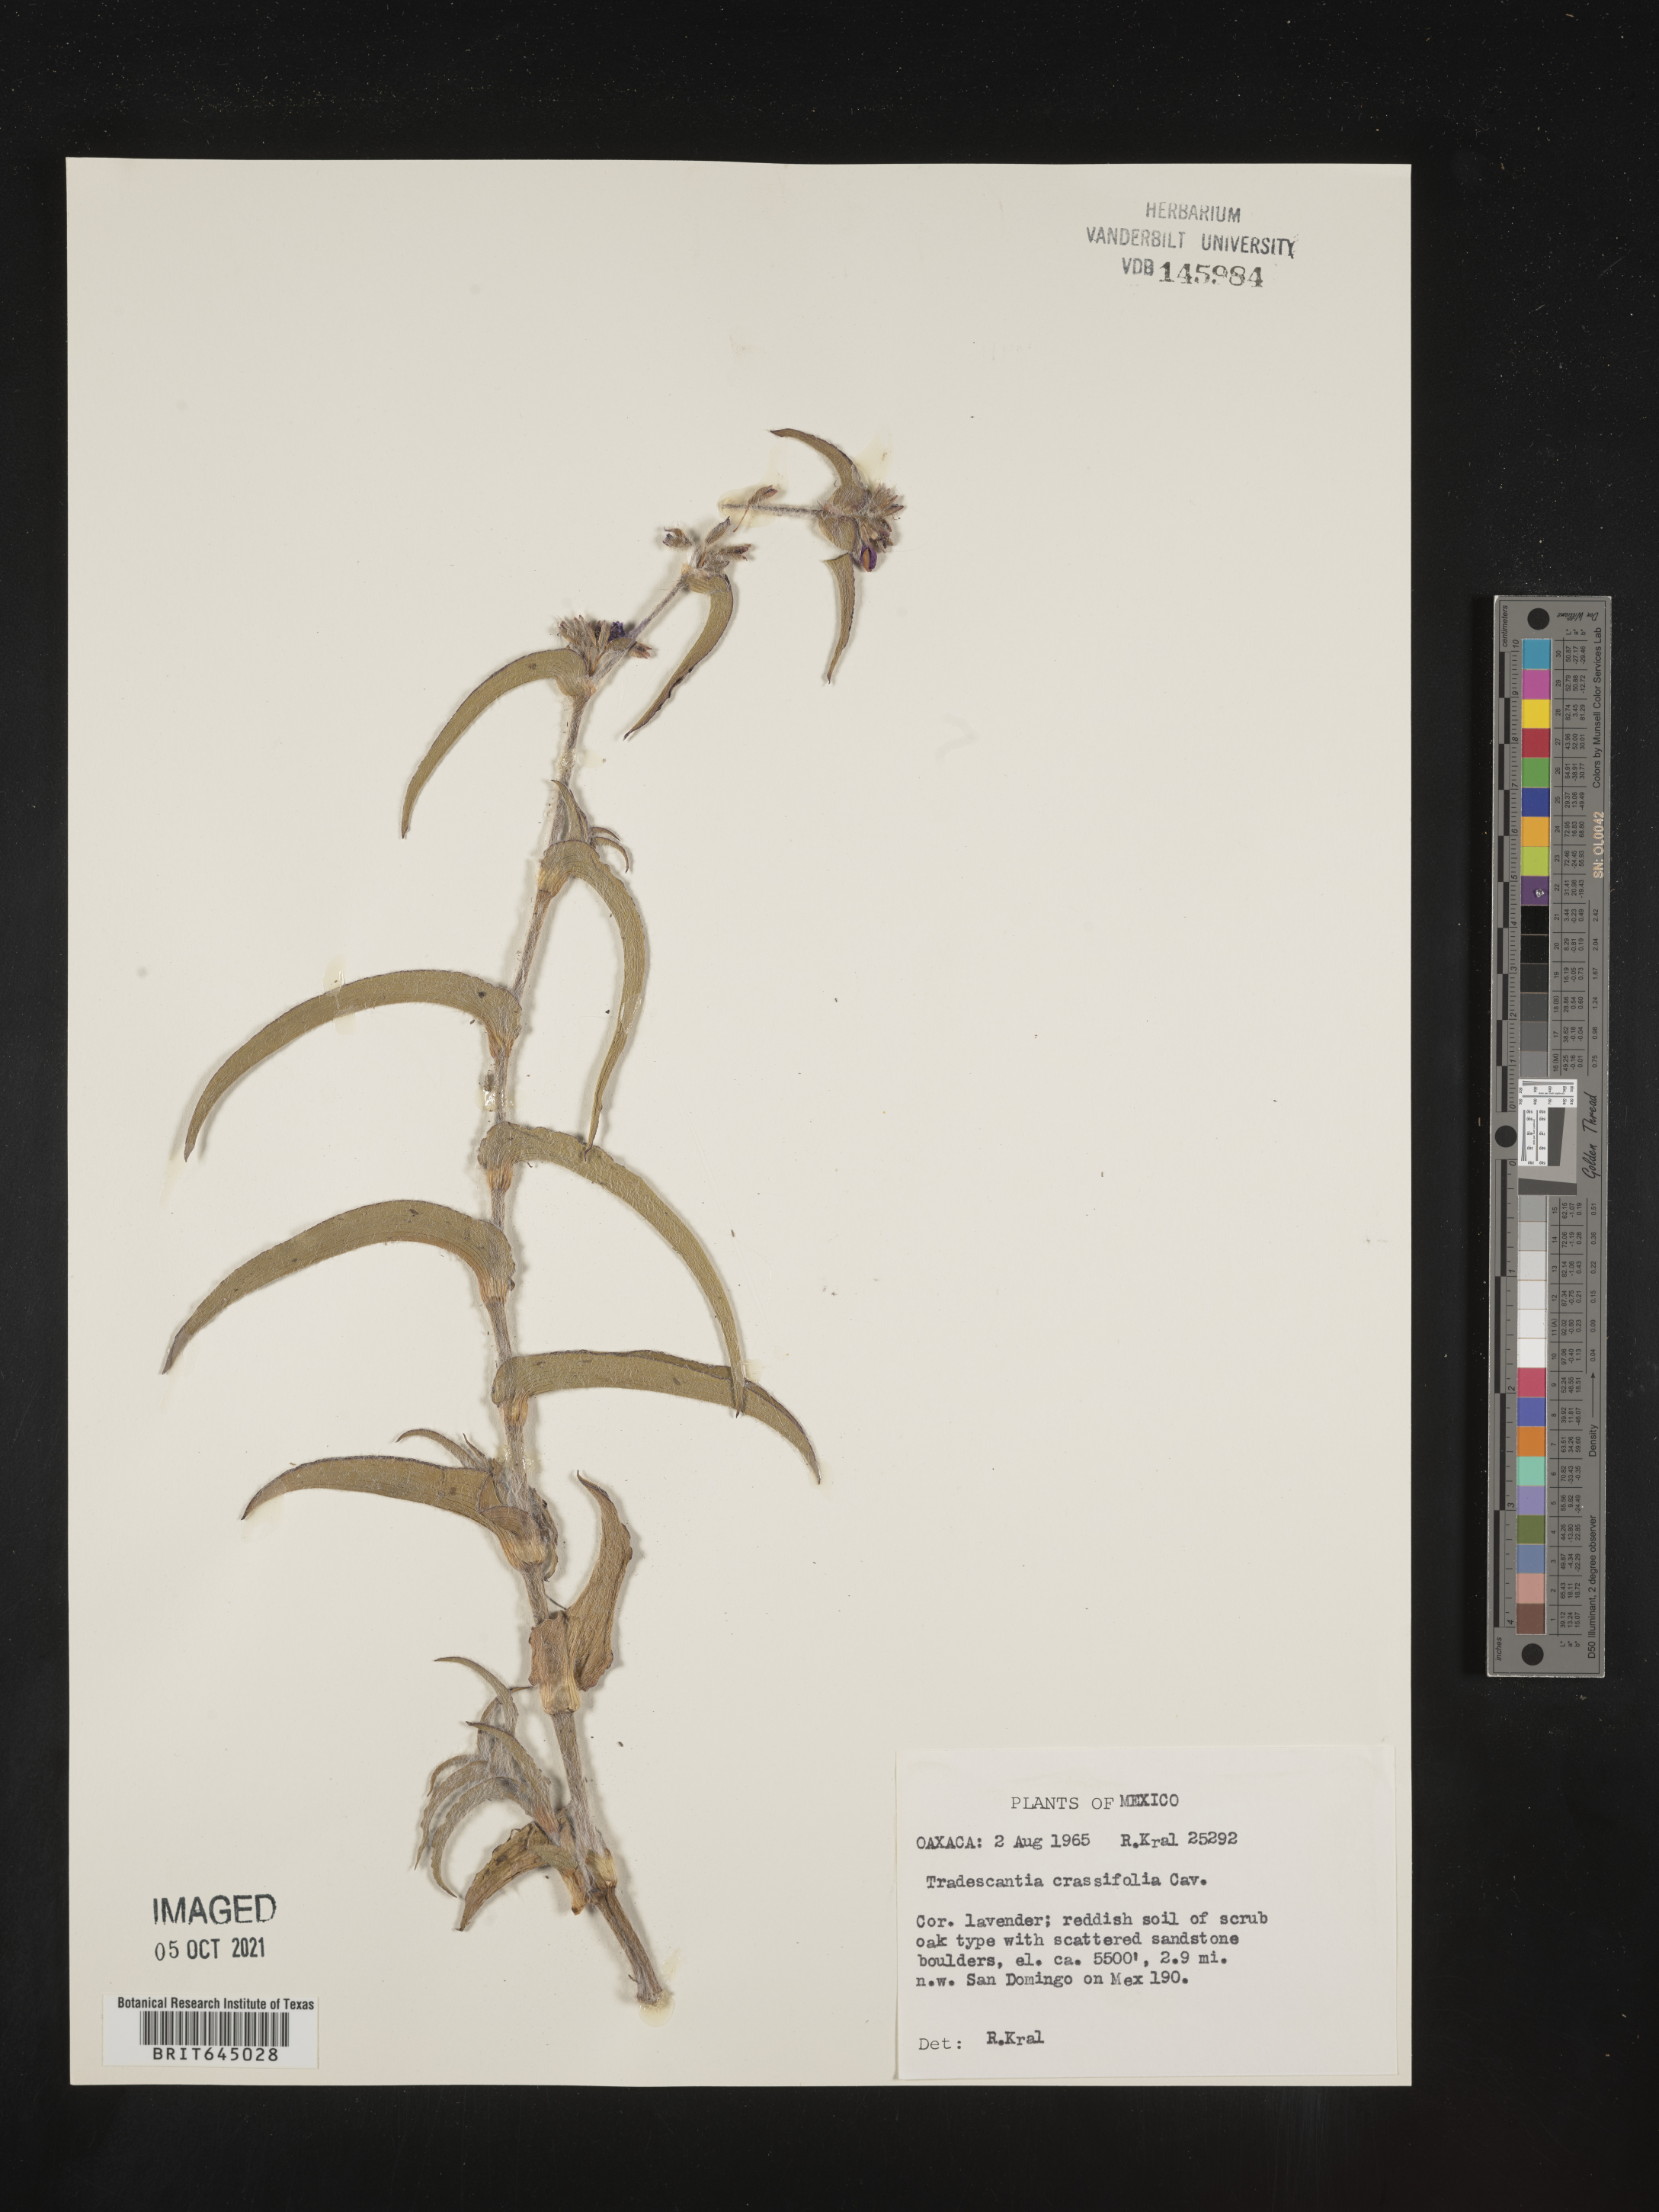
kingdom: Plantae
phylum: Tracheophyta
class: Liliopsida
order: Commelinales
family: Commelinaceae
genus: Tradescantia
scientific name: Tradescantia
